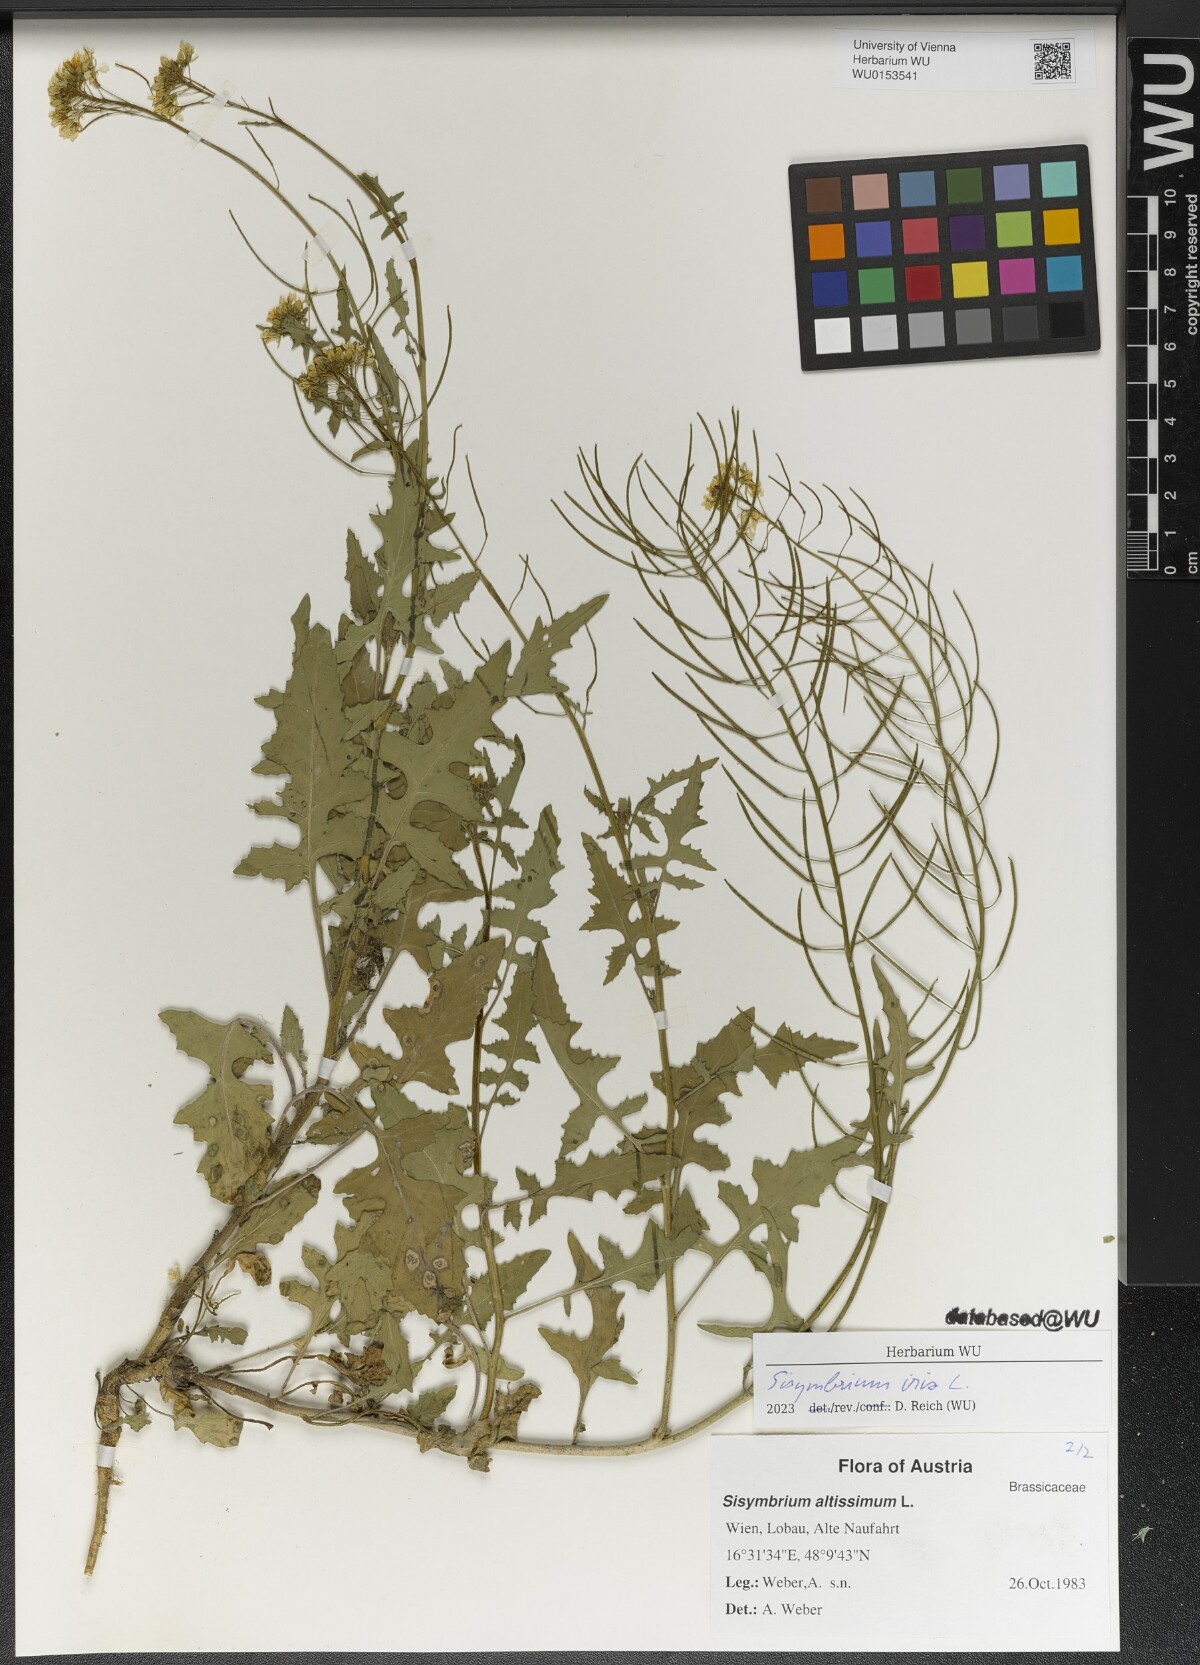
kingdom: Plantae
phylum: Tracheophyta
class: Magnoliopsida
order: Brassicales
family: Brassicaceae
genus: Sisymbrium
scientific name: Sisymbrium irio
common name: London rocket
